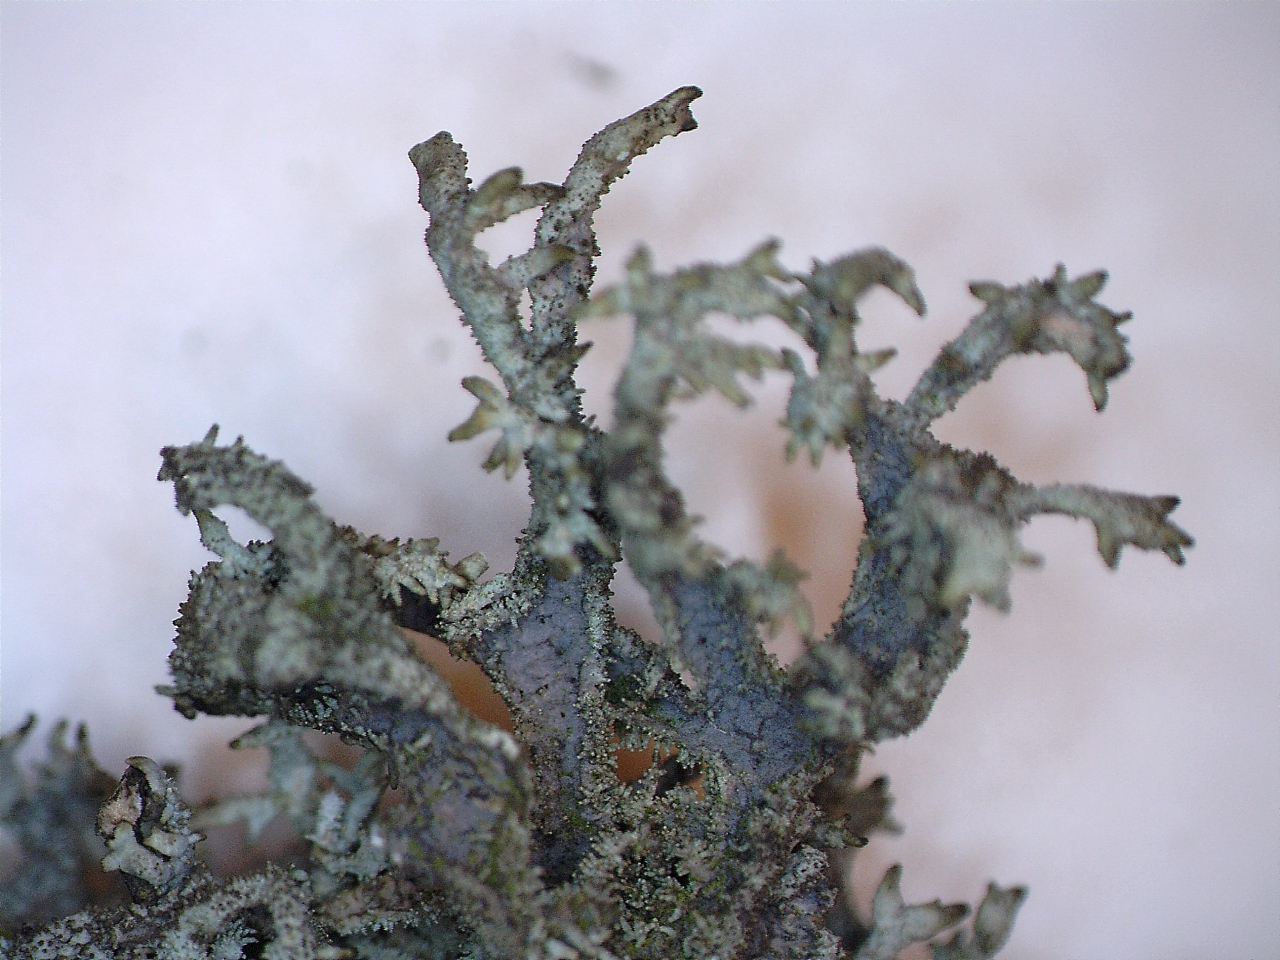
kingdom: Fungi
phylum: Ascomycota
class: Lecanoromycetes
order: Lecanorales
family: Parmeliaceae
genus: Pseudevernia
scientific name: Pseudevernia furfuracea
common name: grå fyrrelav
